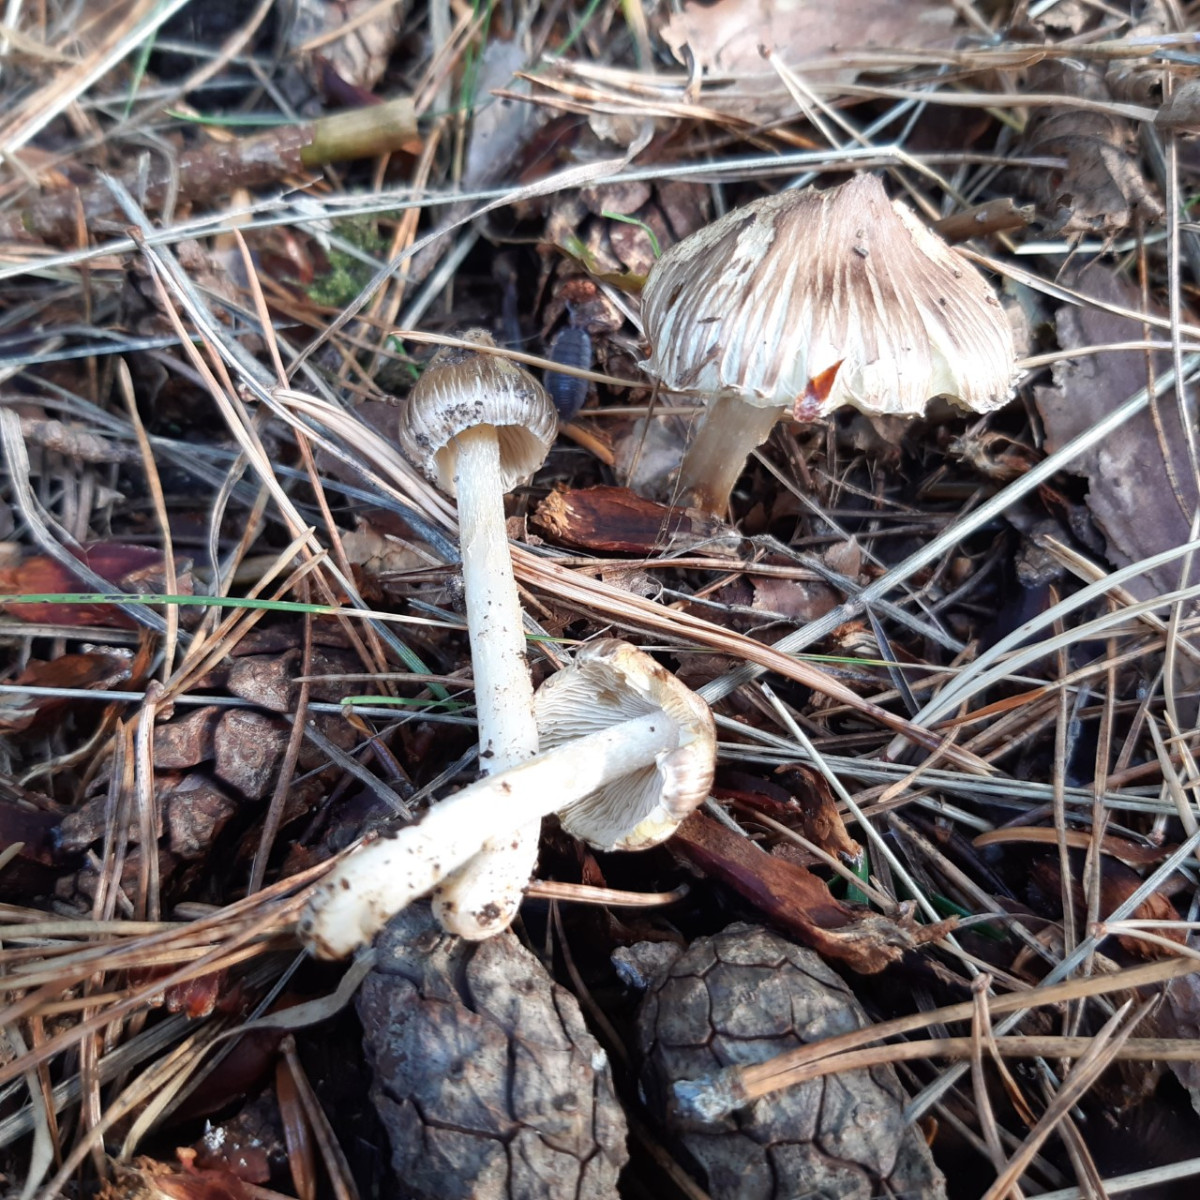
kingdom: Fungi
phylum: Basidiomycota
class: Agaricomycetes
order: Agaricales
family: Inocybaceae
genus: Pseudosperma
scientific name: Pseudosperma rimosum
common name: gulbladet trævlhat
